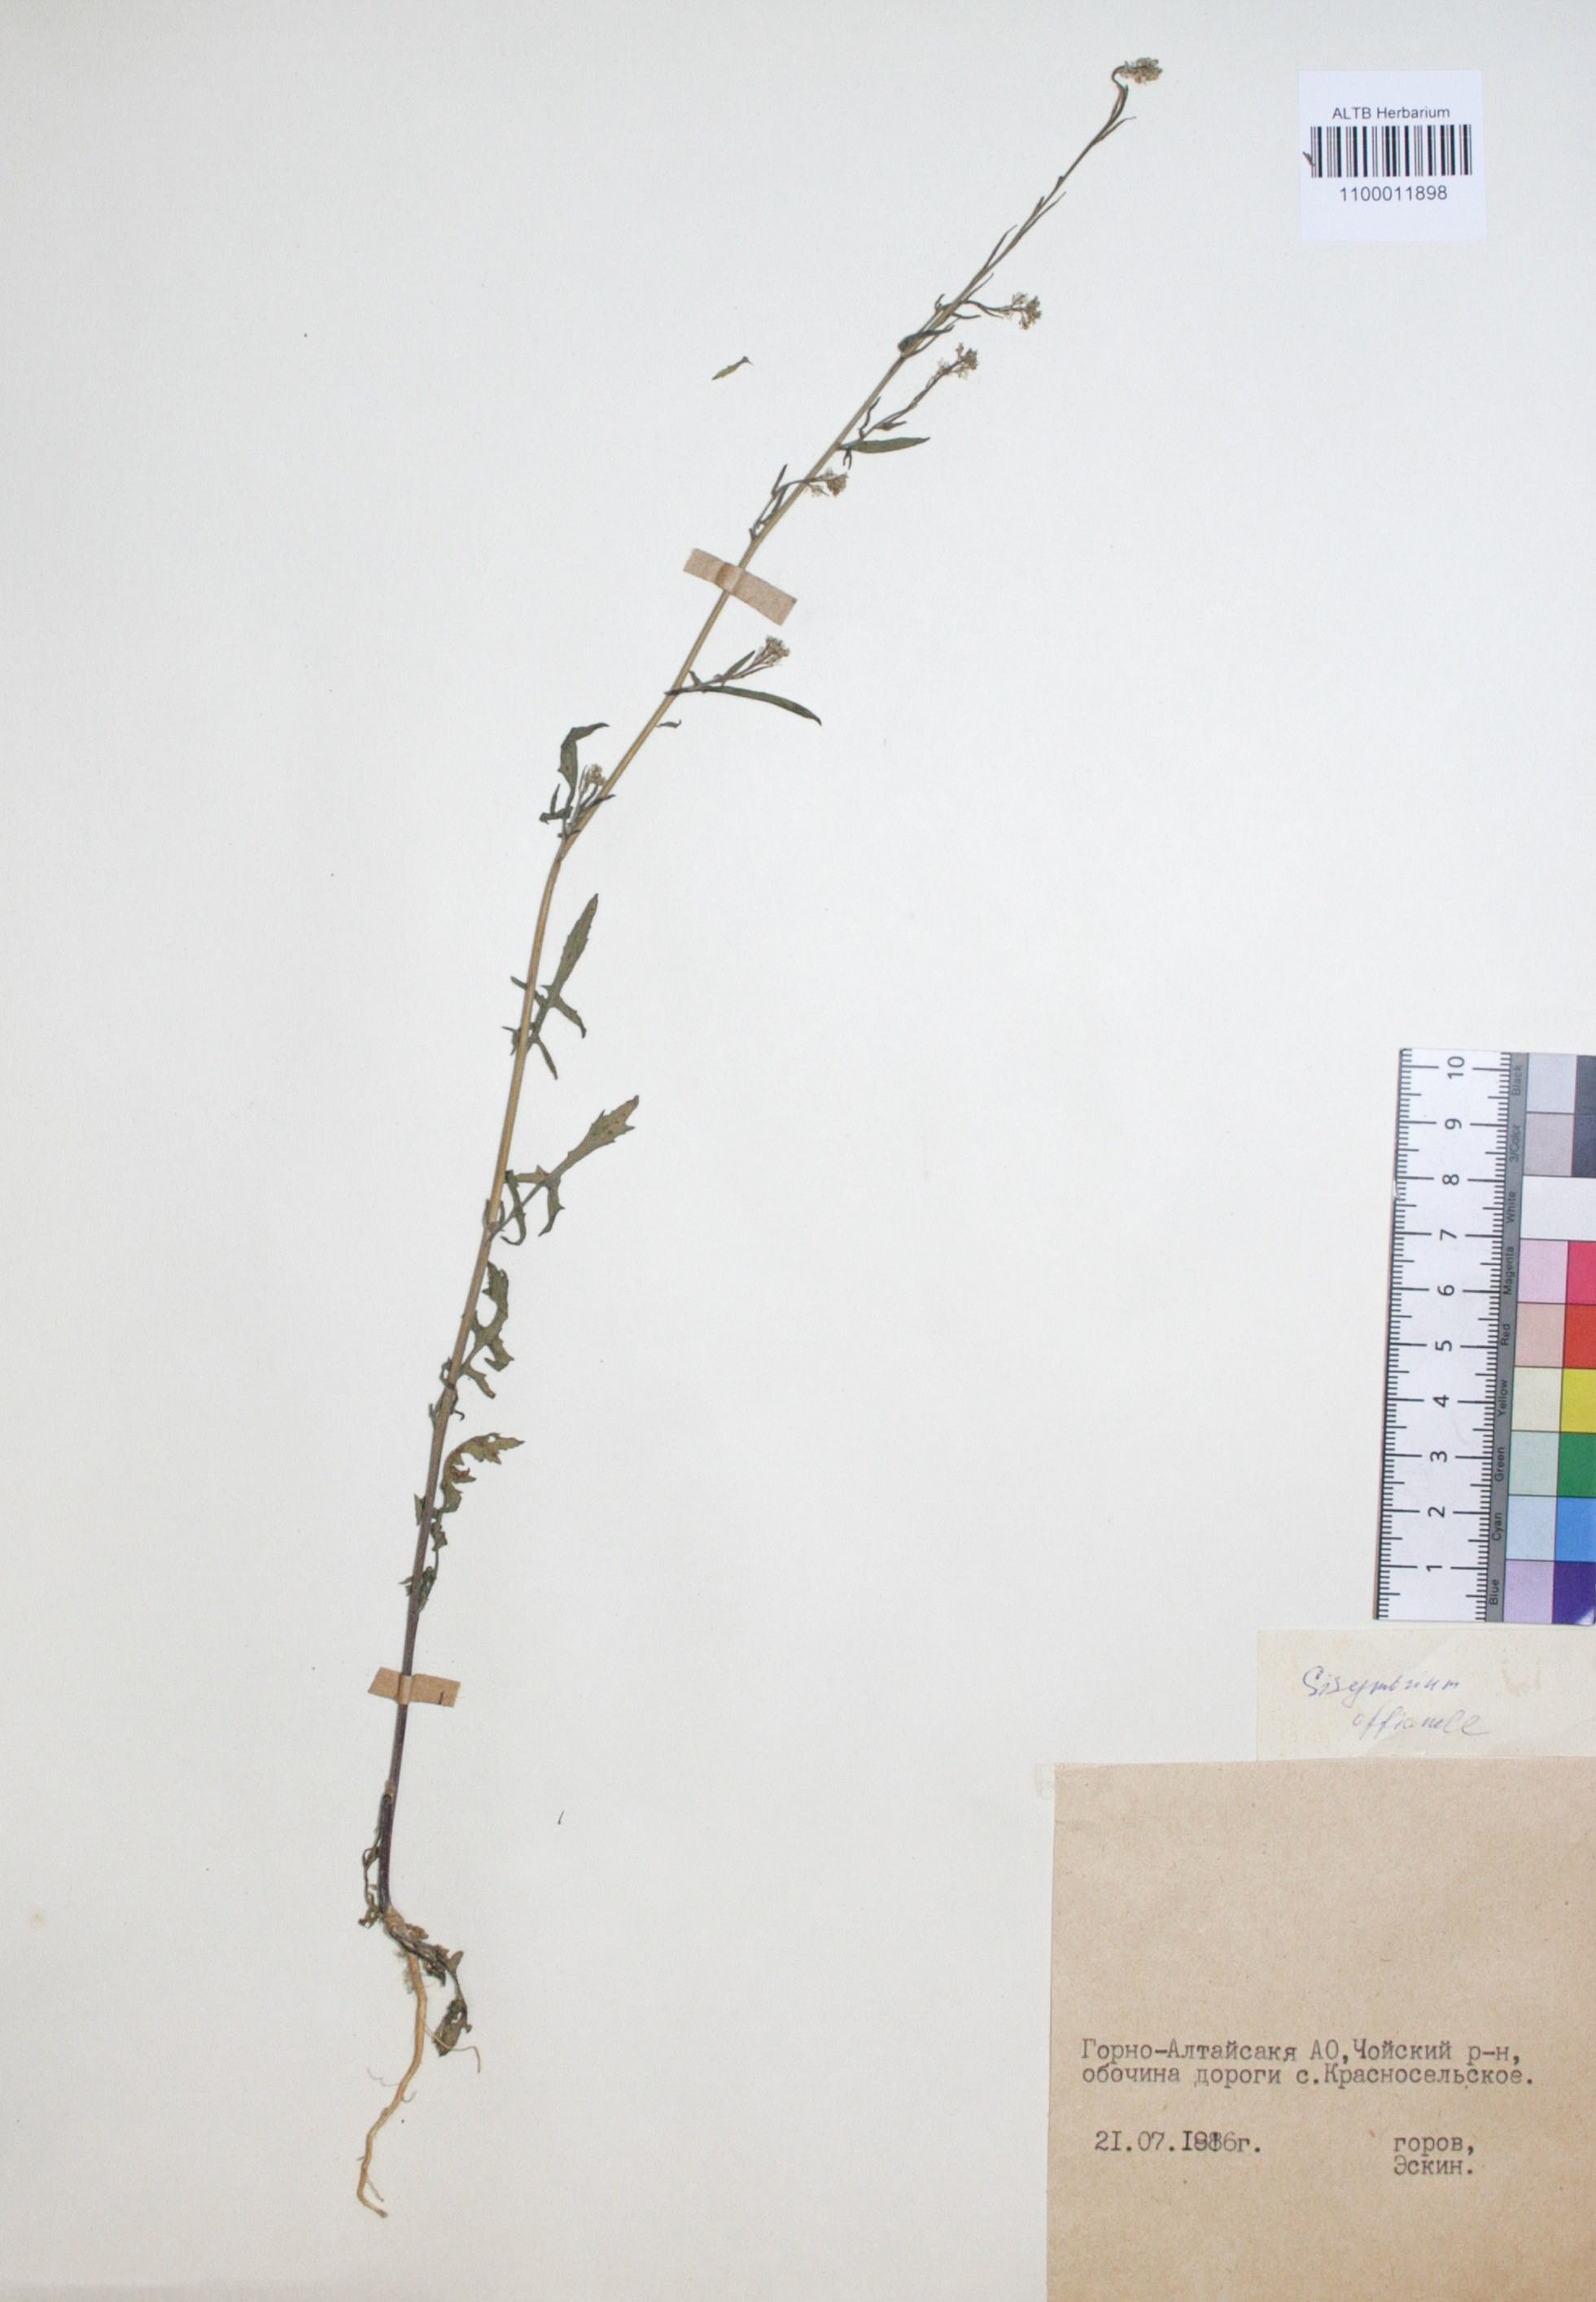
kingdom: Plantae
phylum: Tracheophyta
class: Magnoliopsida
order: Brassicales
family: Brassicaceae
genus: Sisymbrium
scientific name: Sisymbrium officinale
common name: Hedge mustard
